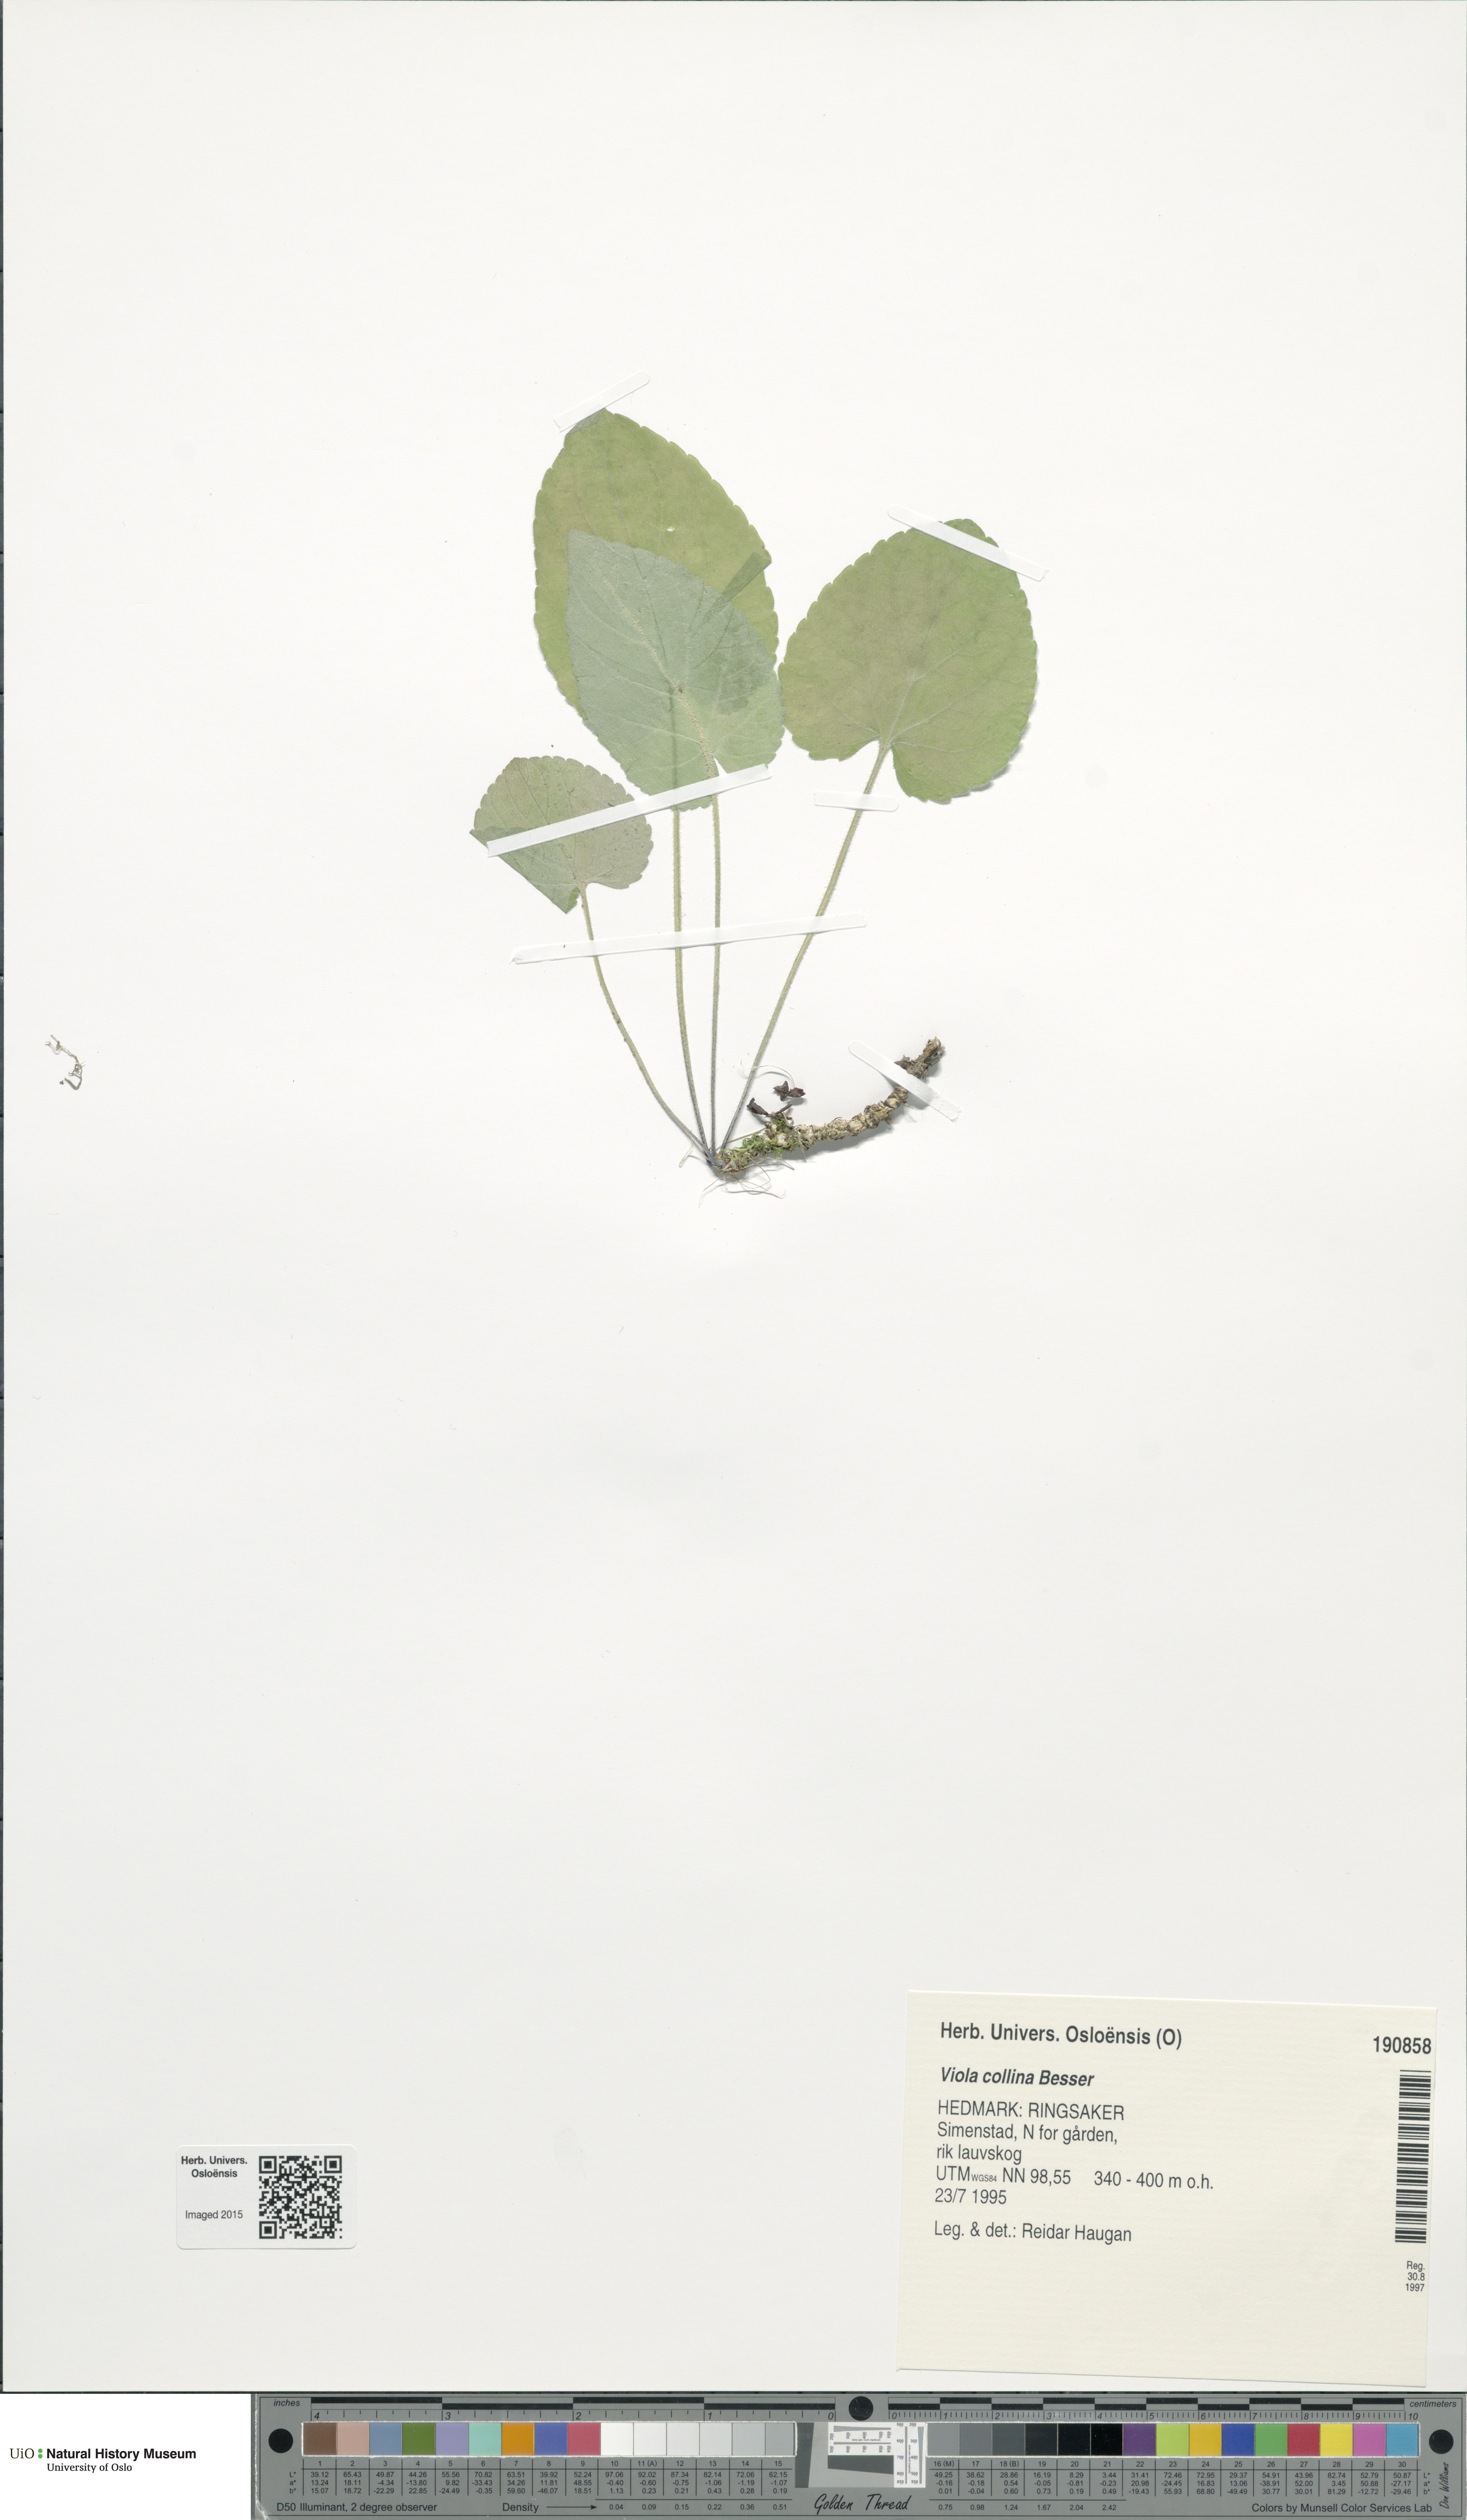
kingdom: Plantae
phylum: Tracheophyta
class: Magnoliopsida
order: Malpighiales
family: Violaceae
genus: Viola
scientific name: Viola collina
